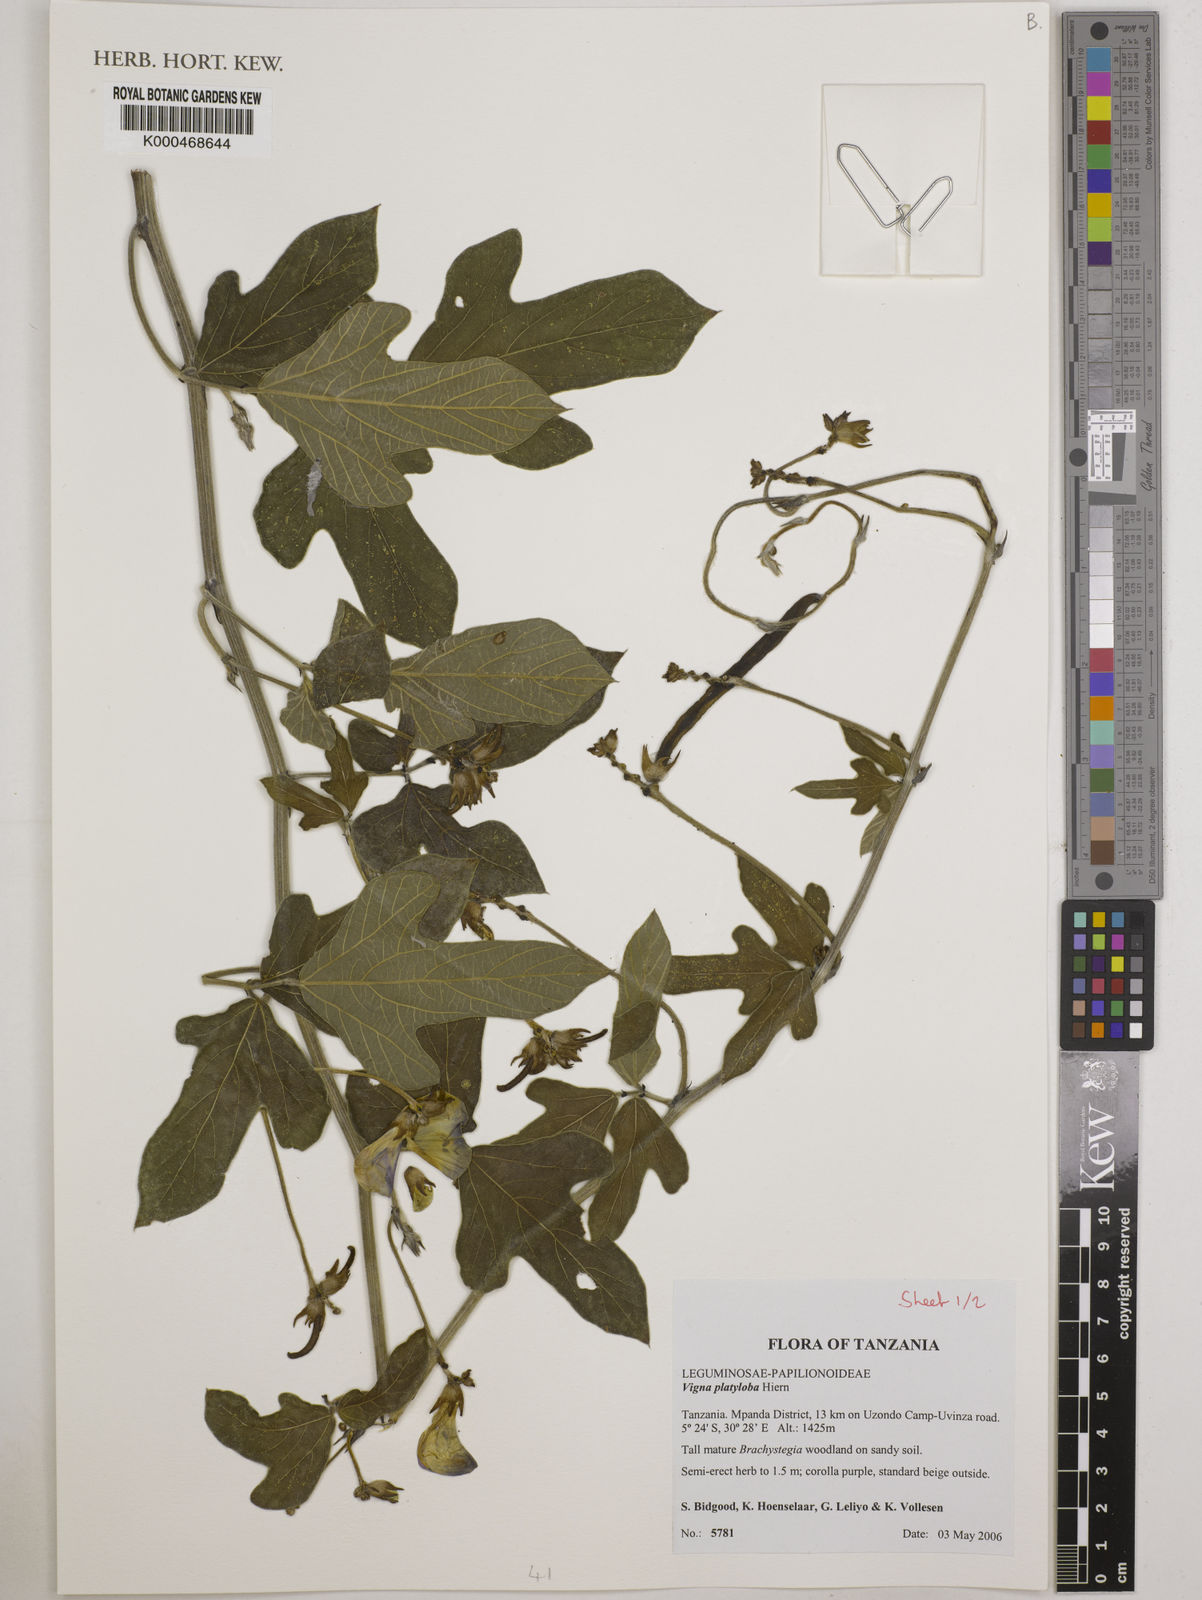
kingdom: Plantae
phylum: Tracheophyta
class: Magnoliopsida
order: Fabales
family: Fabaceae
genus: Vigna
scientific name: Vigna platyloba
